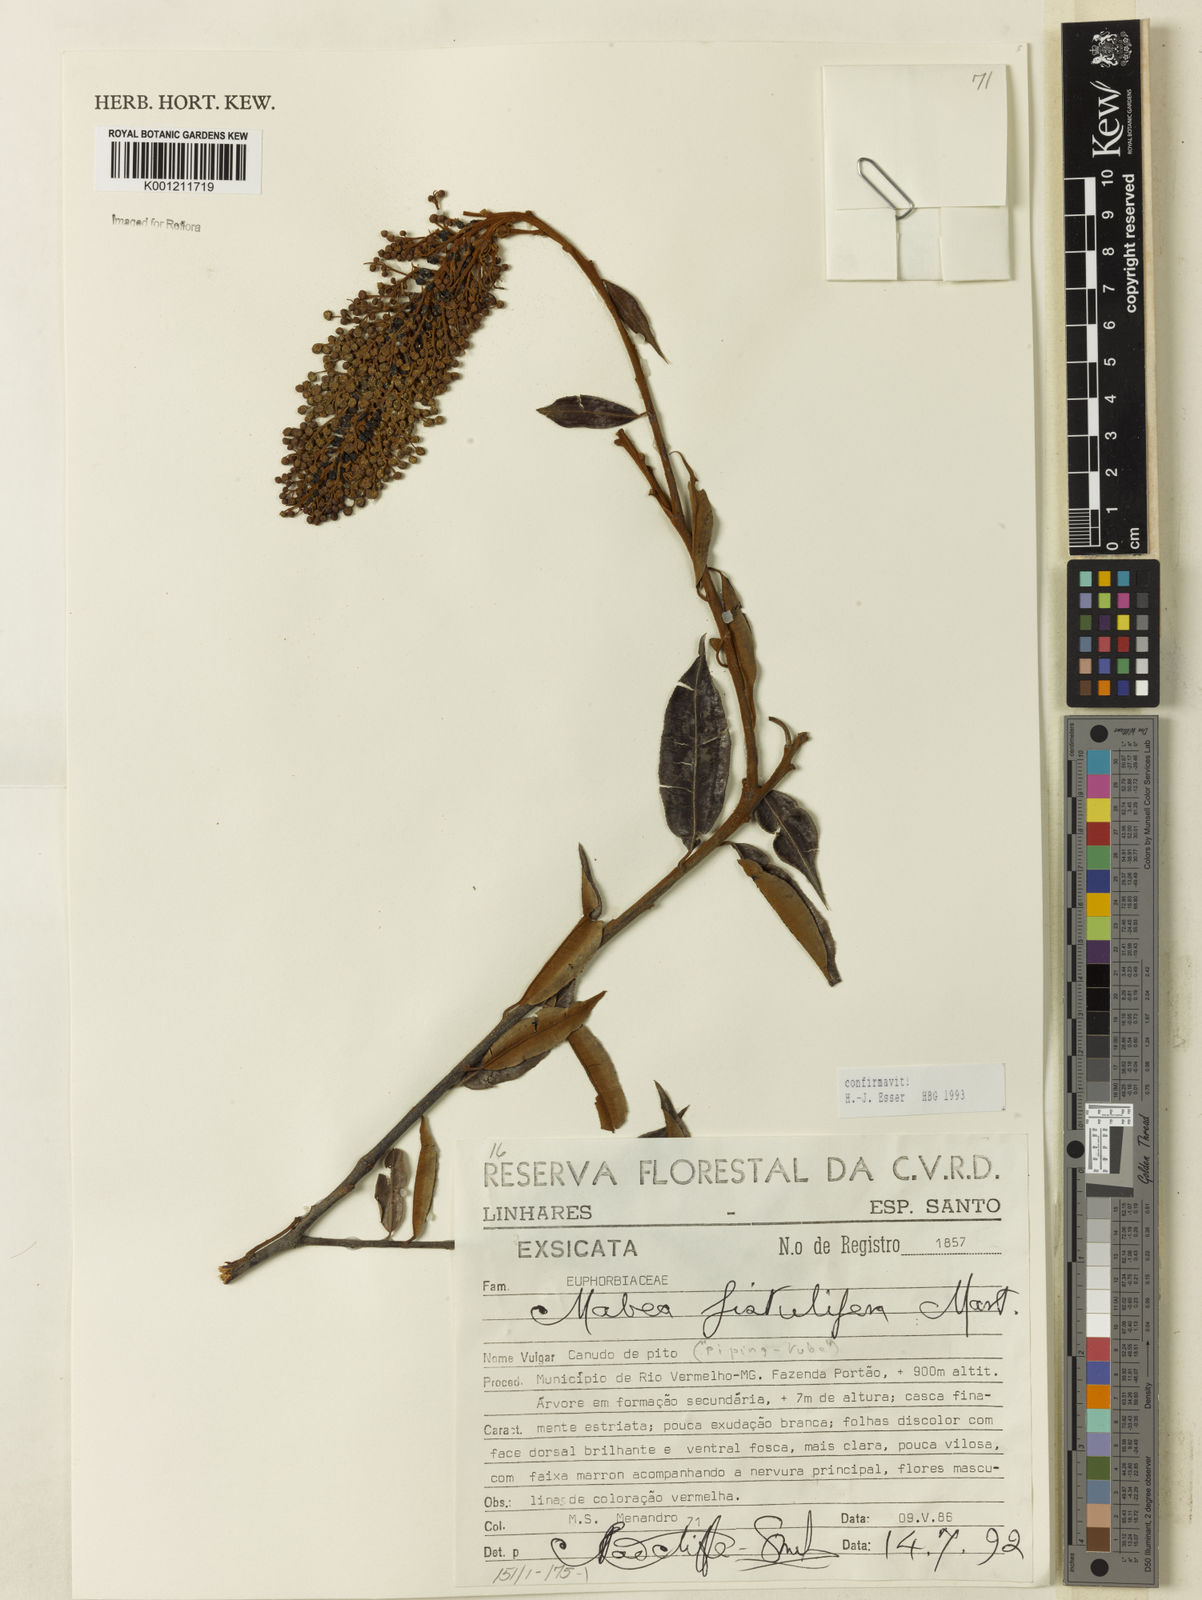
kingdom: Plantae
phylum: Tracheophyta
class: Magnoliopsida
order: Malpighiales
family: Euphorbiaceae
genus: Mabea
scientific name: Mabea fistulifera
